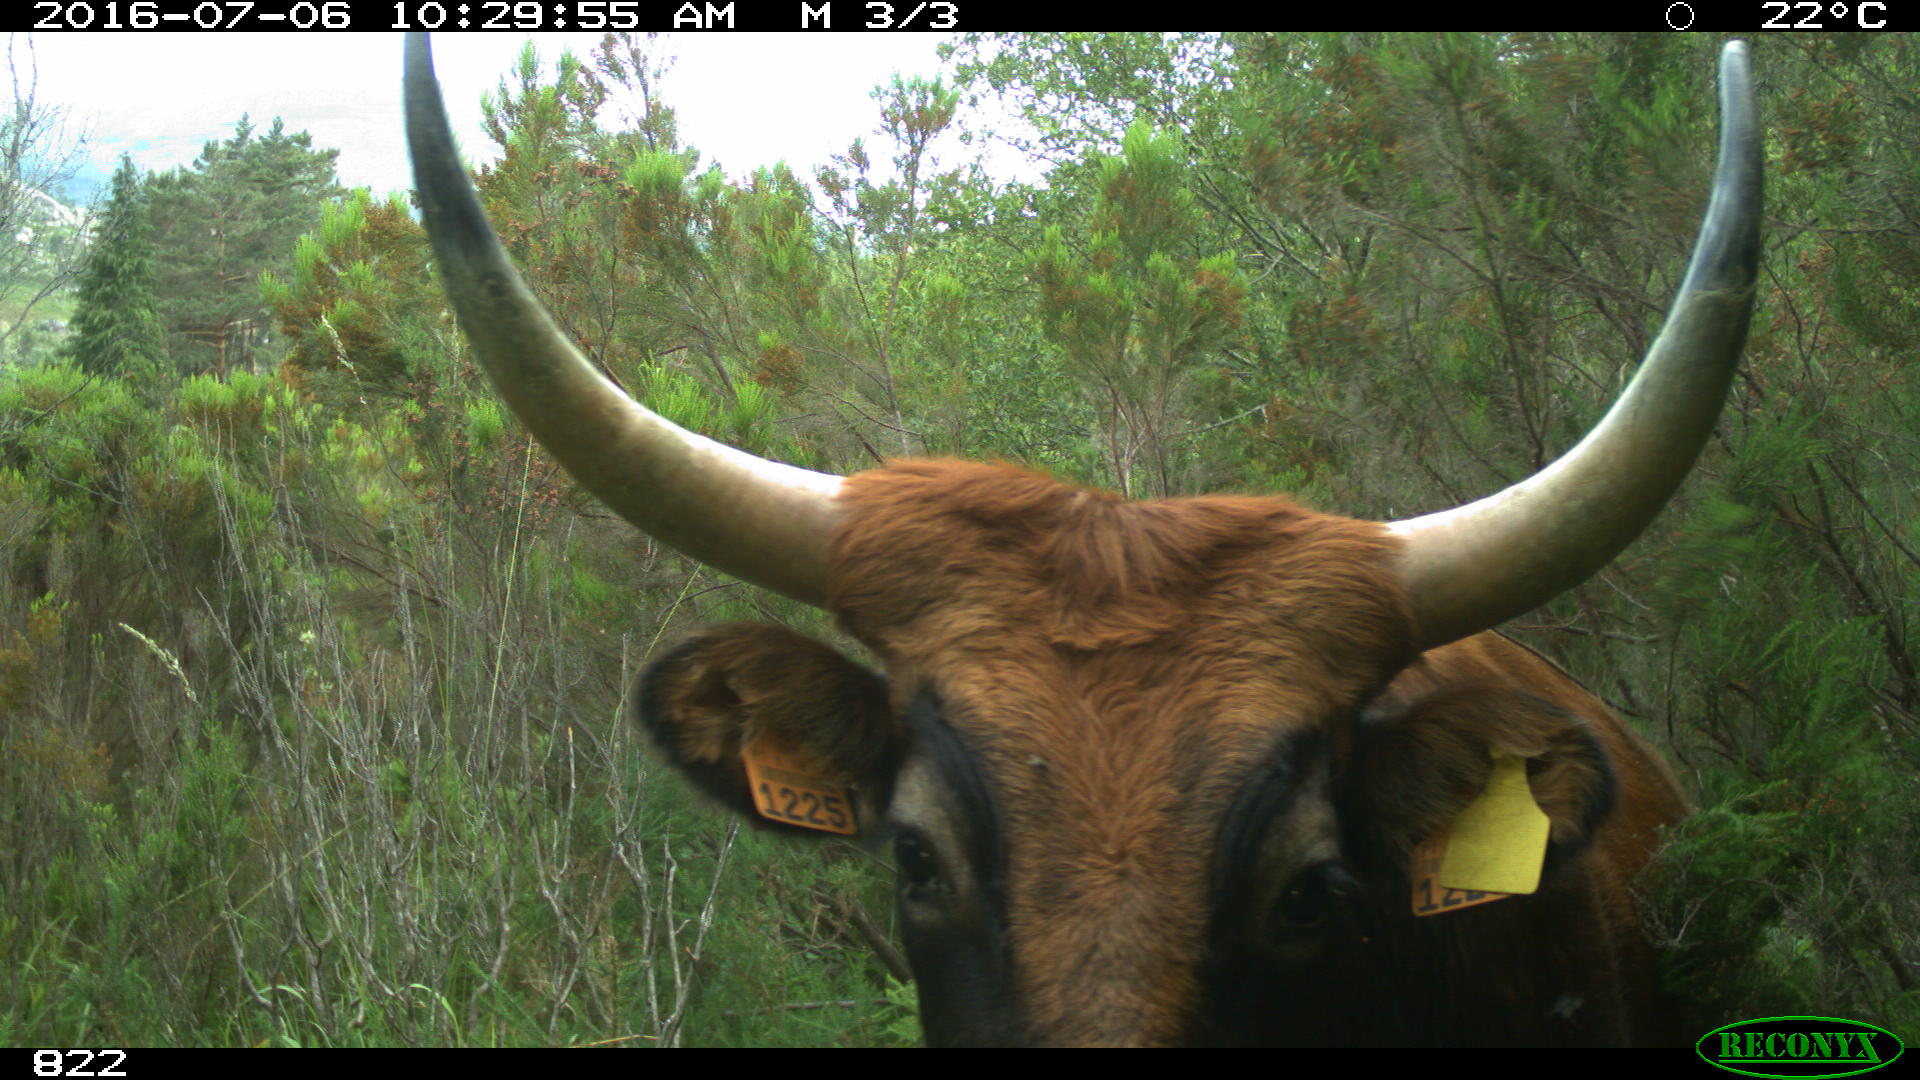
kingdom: Animalia
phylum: Chordata
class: Mammalia
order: Artiodactyla
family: Bovidae
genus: Bos
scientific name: Bos taurus
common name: Domesticated cattle
